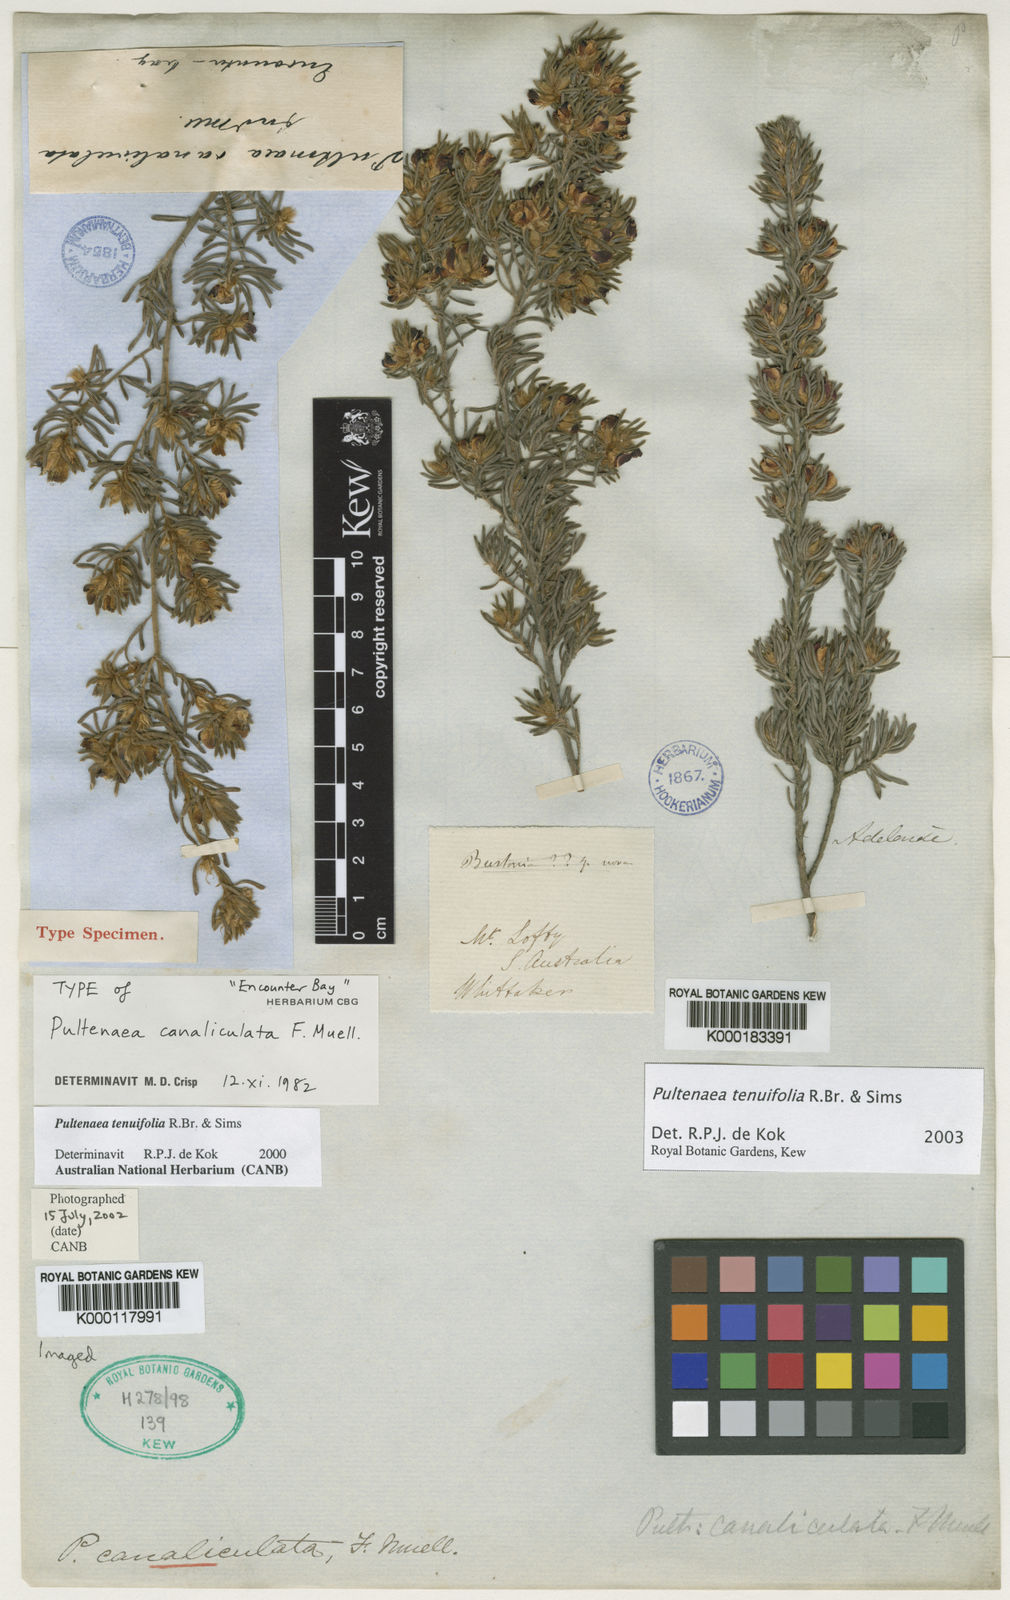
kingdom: Plantae
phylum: Tracheophyta
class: Magnoliopsida
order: Fabales
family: Fabaceae
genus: Pultenaea
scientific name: Pultenaea tenuifolia
